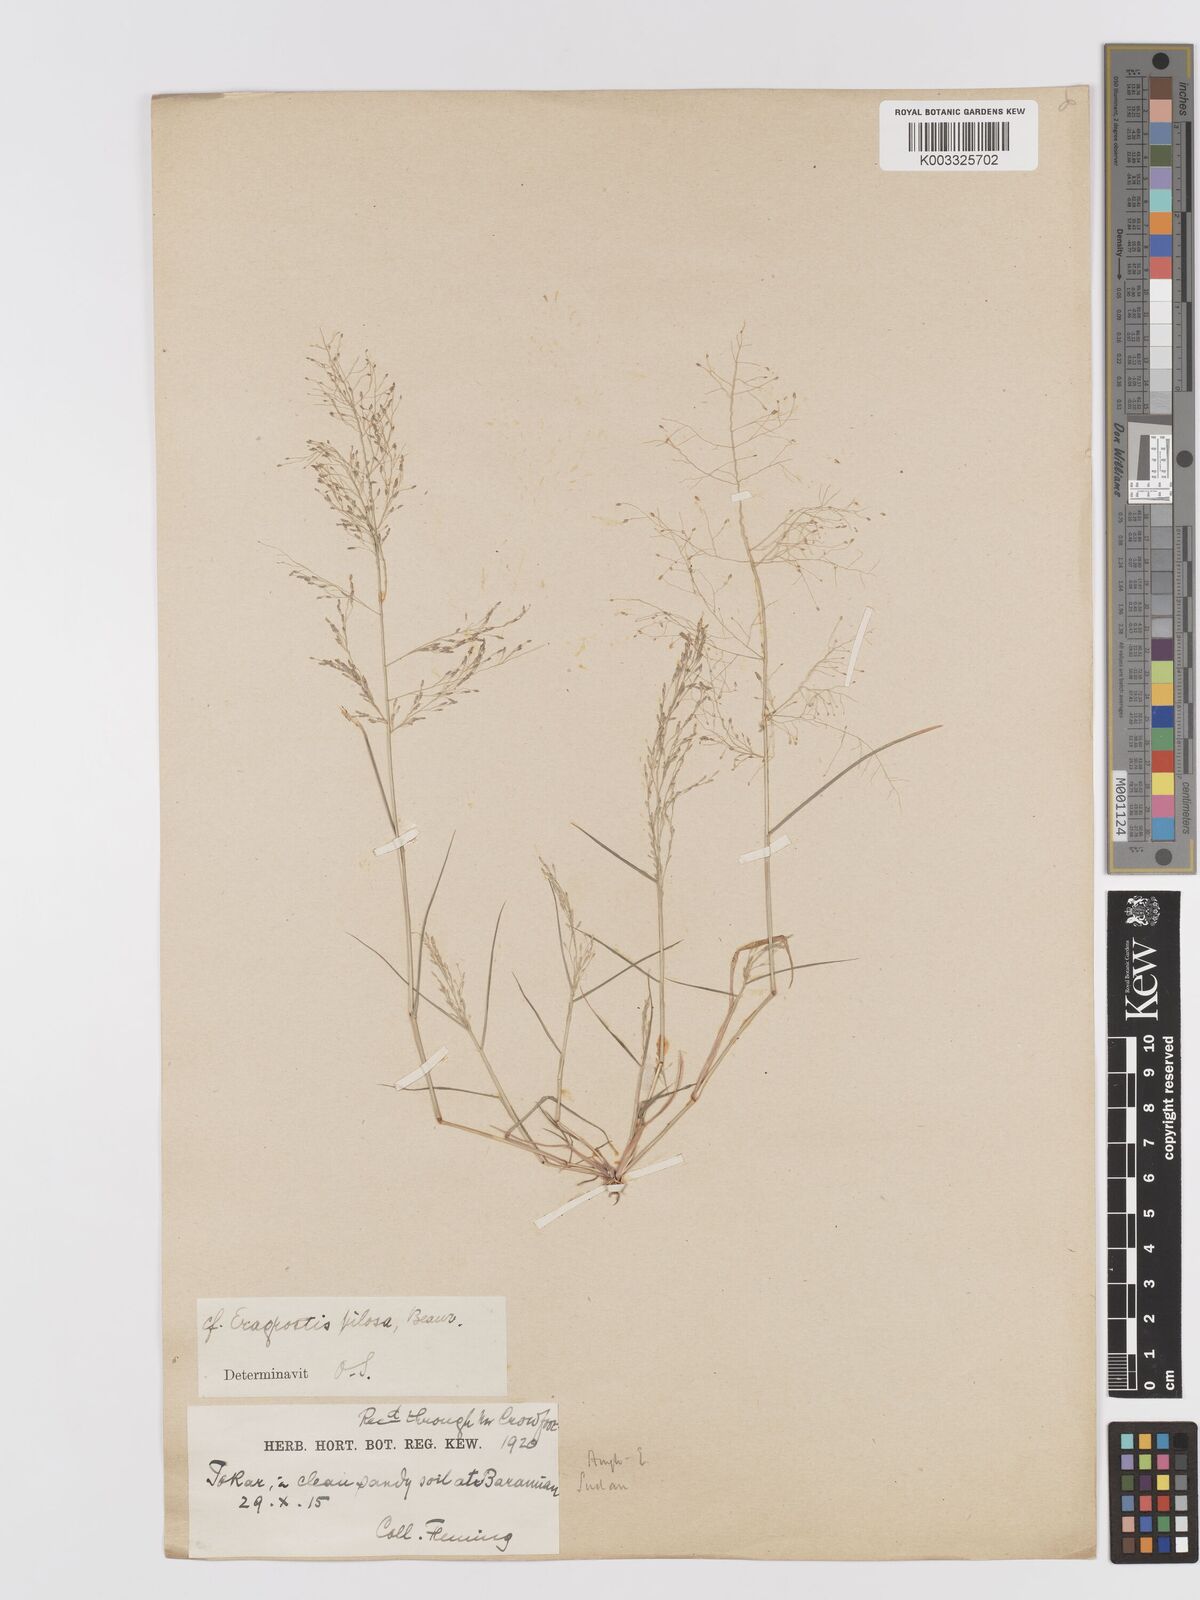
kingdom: Plantae
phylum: Tracheophyta
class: Liliopsida
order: Poales
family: Poaceae
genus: Eragrostis
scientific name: Eragrostis pilosa
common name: Indian lovegrass
